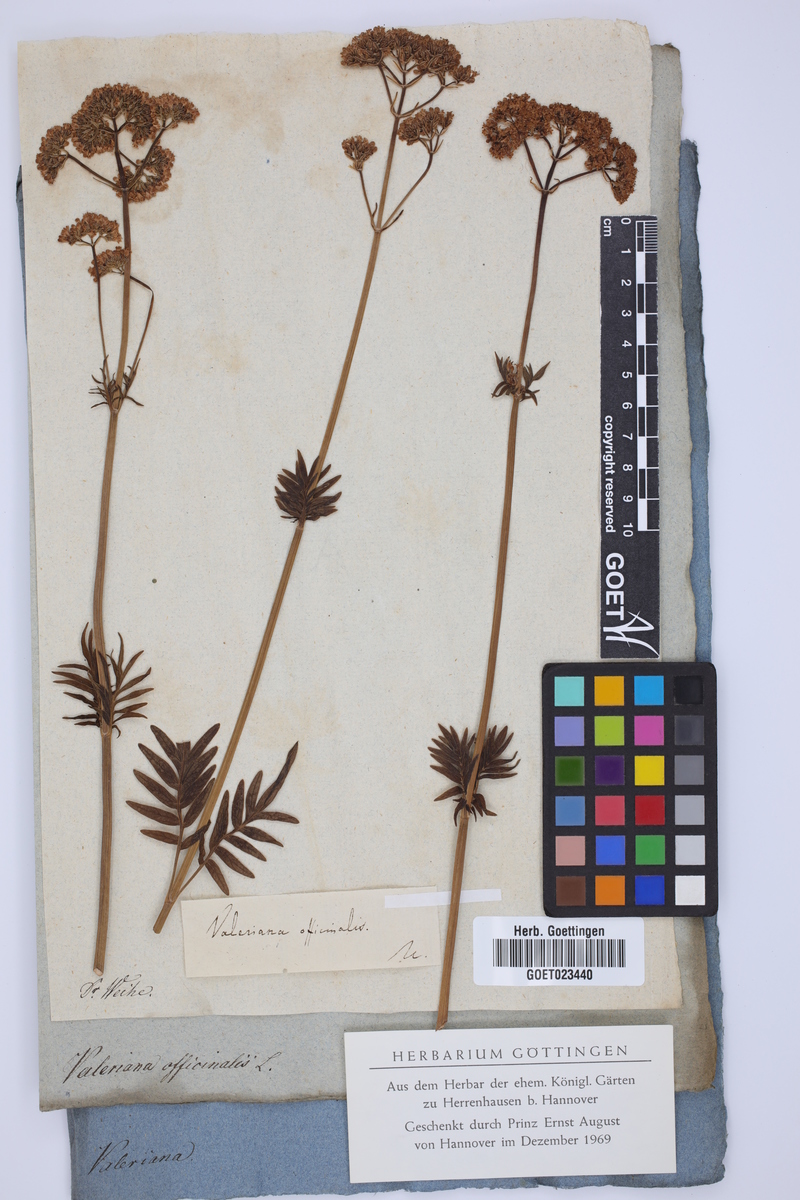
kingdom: Plantae
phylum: Tracheophyta
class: Magnoliopsida
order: Dipsacales
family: Caprifoliaceae
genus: Valeriana
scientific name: Valeriana officinalis
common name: Common valerian
